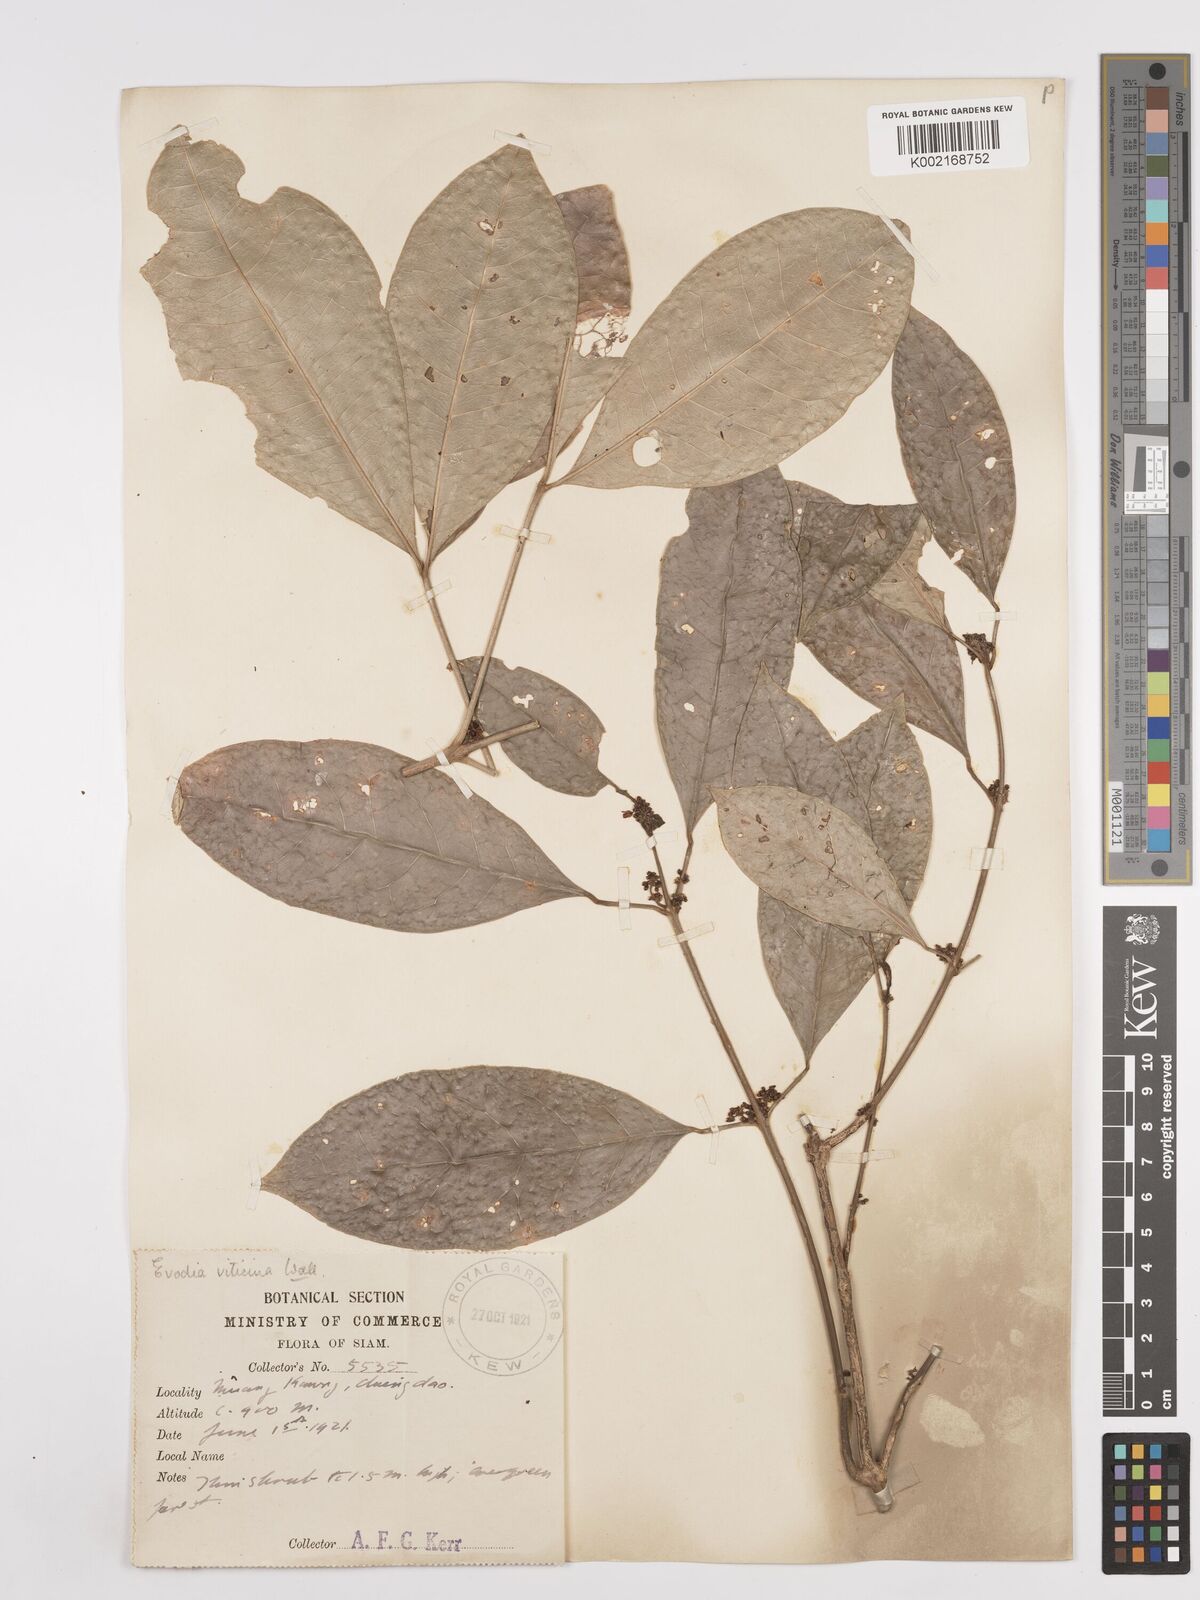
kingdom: Plantae
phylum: Tracheophyta
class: Magnoliopsida
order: Sapindales
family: Rutaceae
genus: Euodia
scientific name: Euodia
